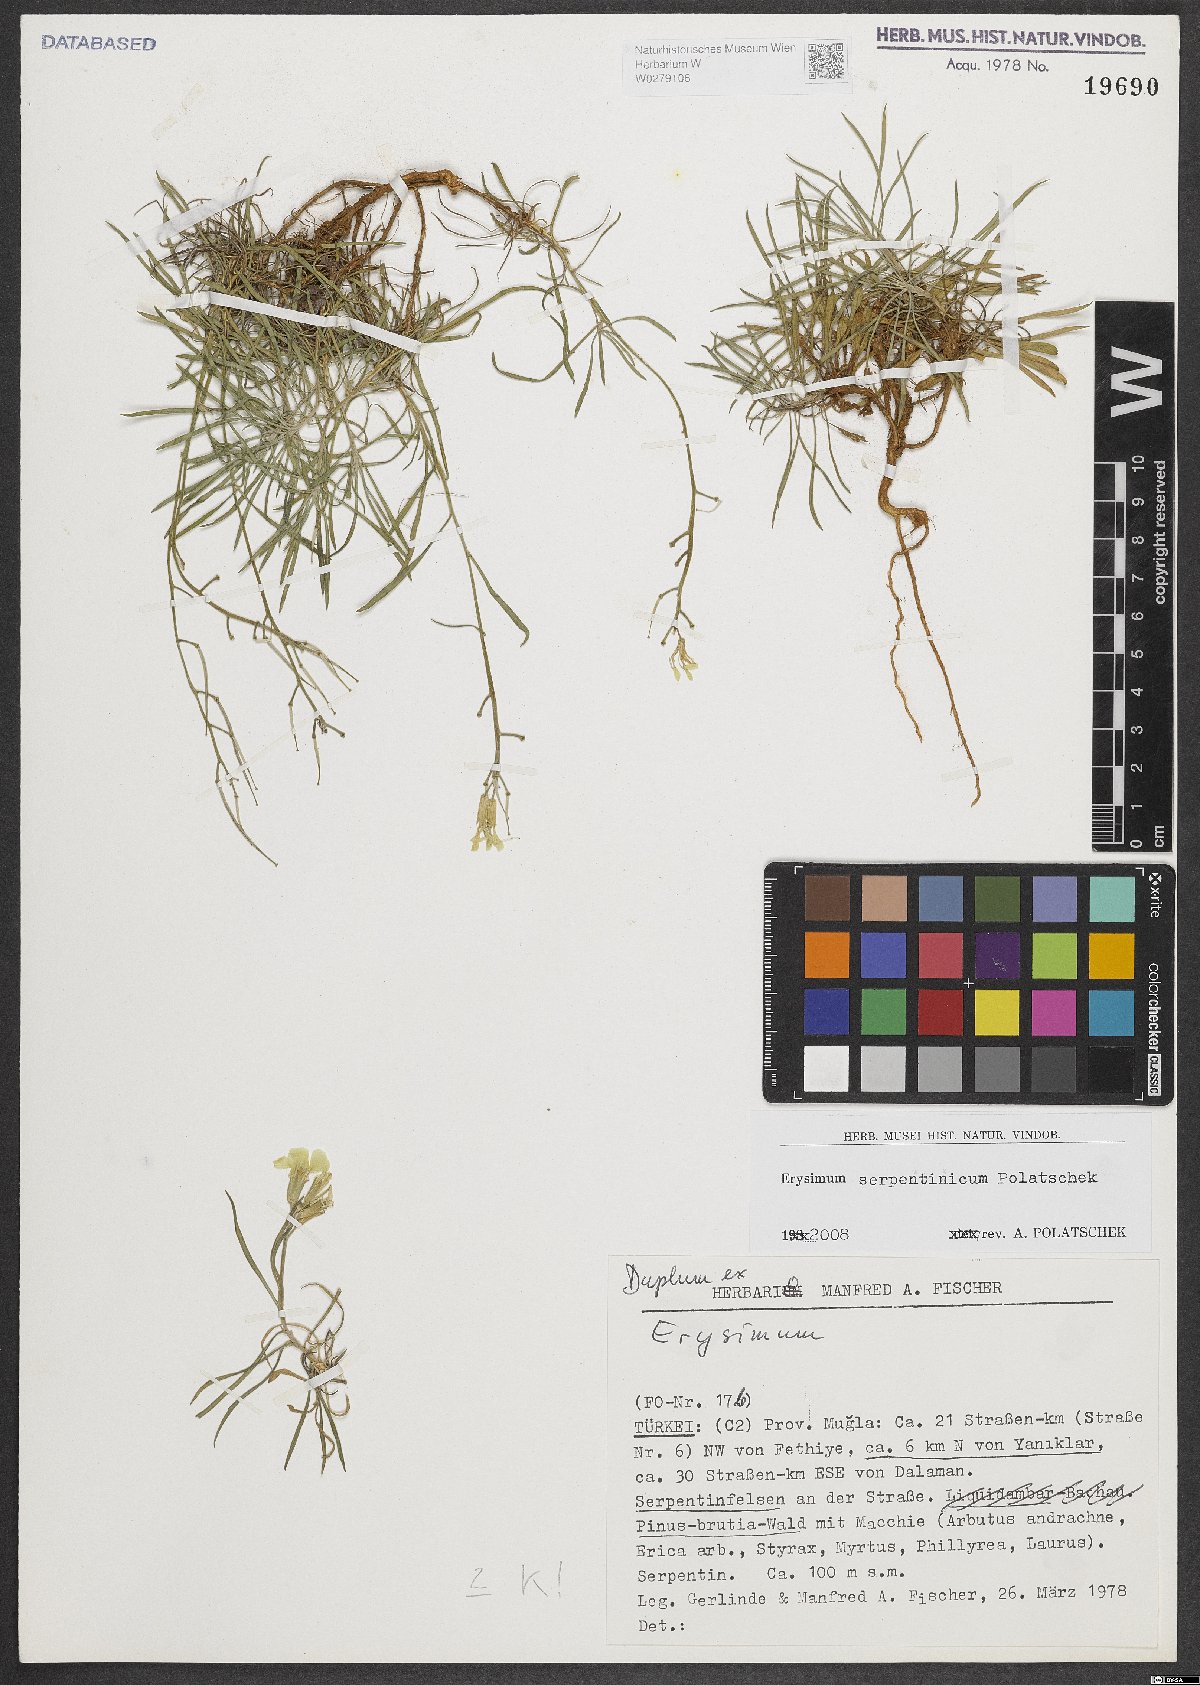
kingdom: Plantae
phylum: Tracheophyta
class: Magnoliopsida
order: Brassicales
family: Brassicaceae
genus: Erysimum
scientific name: Erysimum serpentinicum
